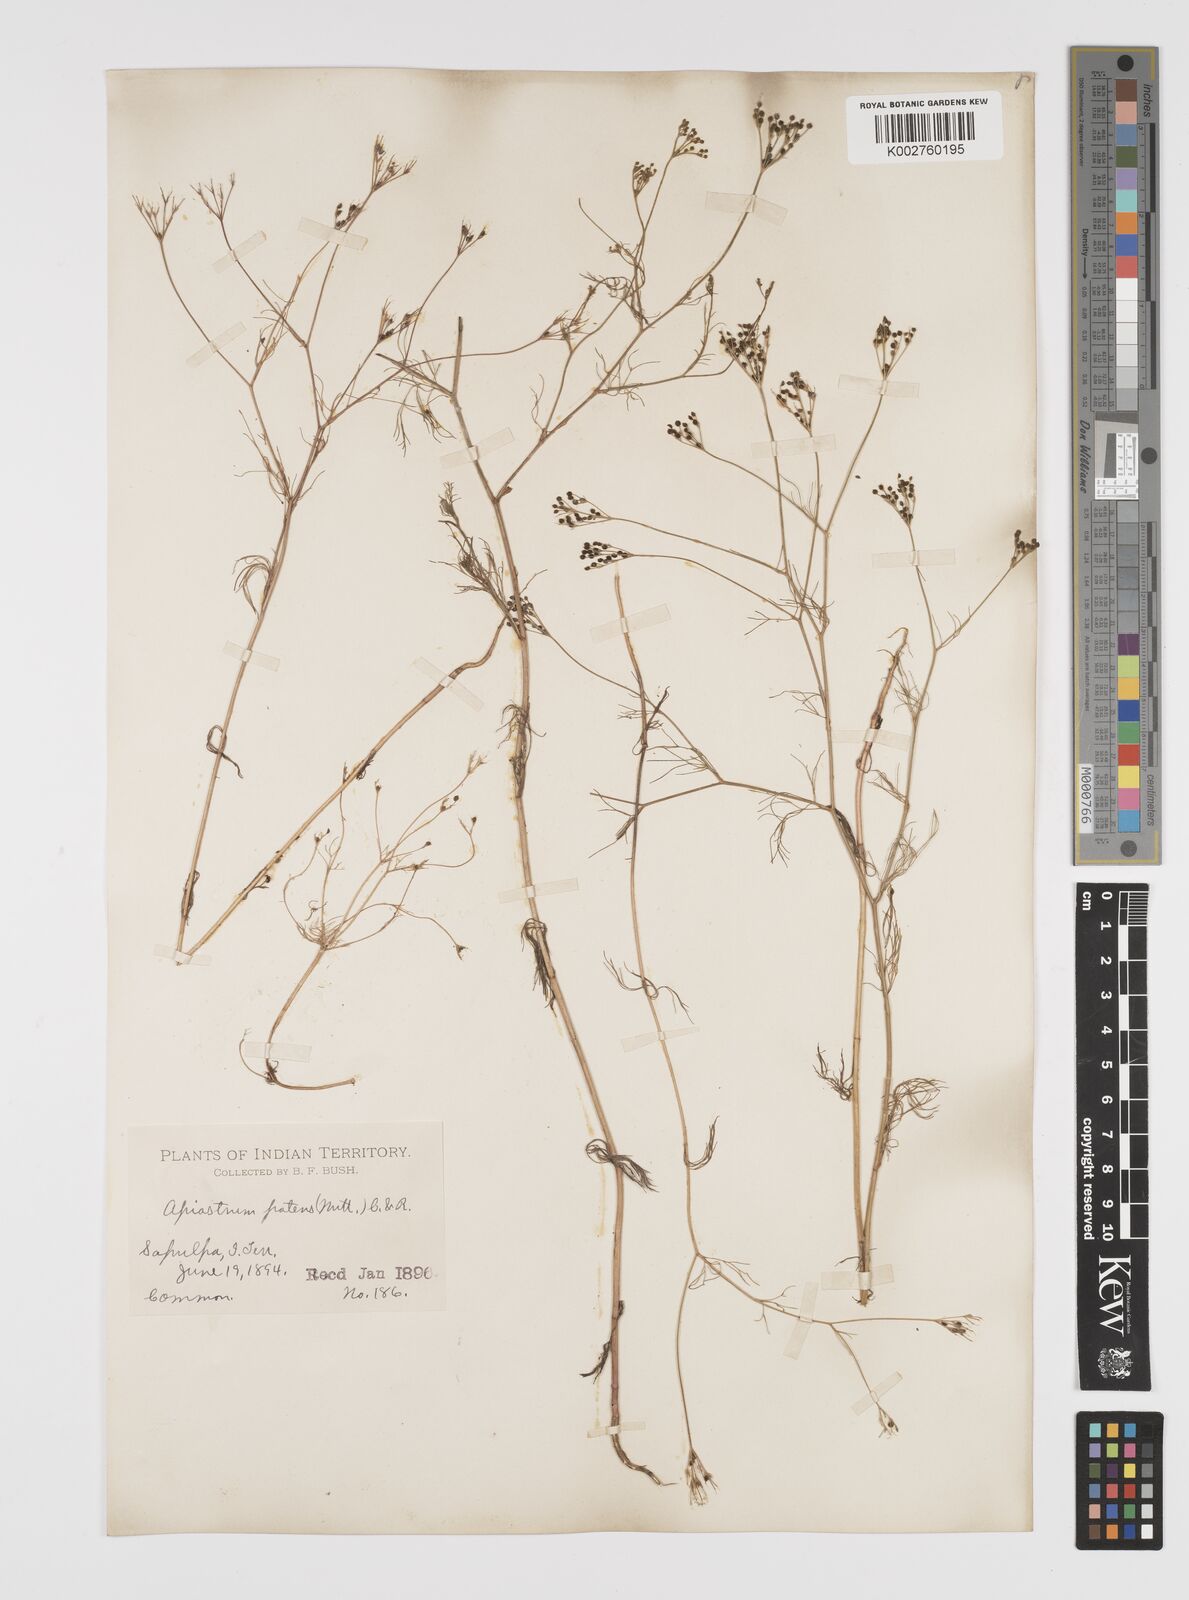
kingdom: Plantae
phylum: Tracheophyta
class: Magnoliopsida
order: Apiales
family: Apiaceae
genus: Spermolepis
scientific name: Spermolepis inermis
